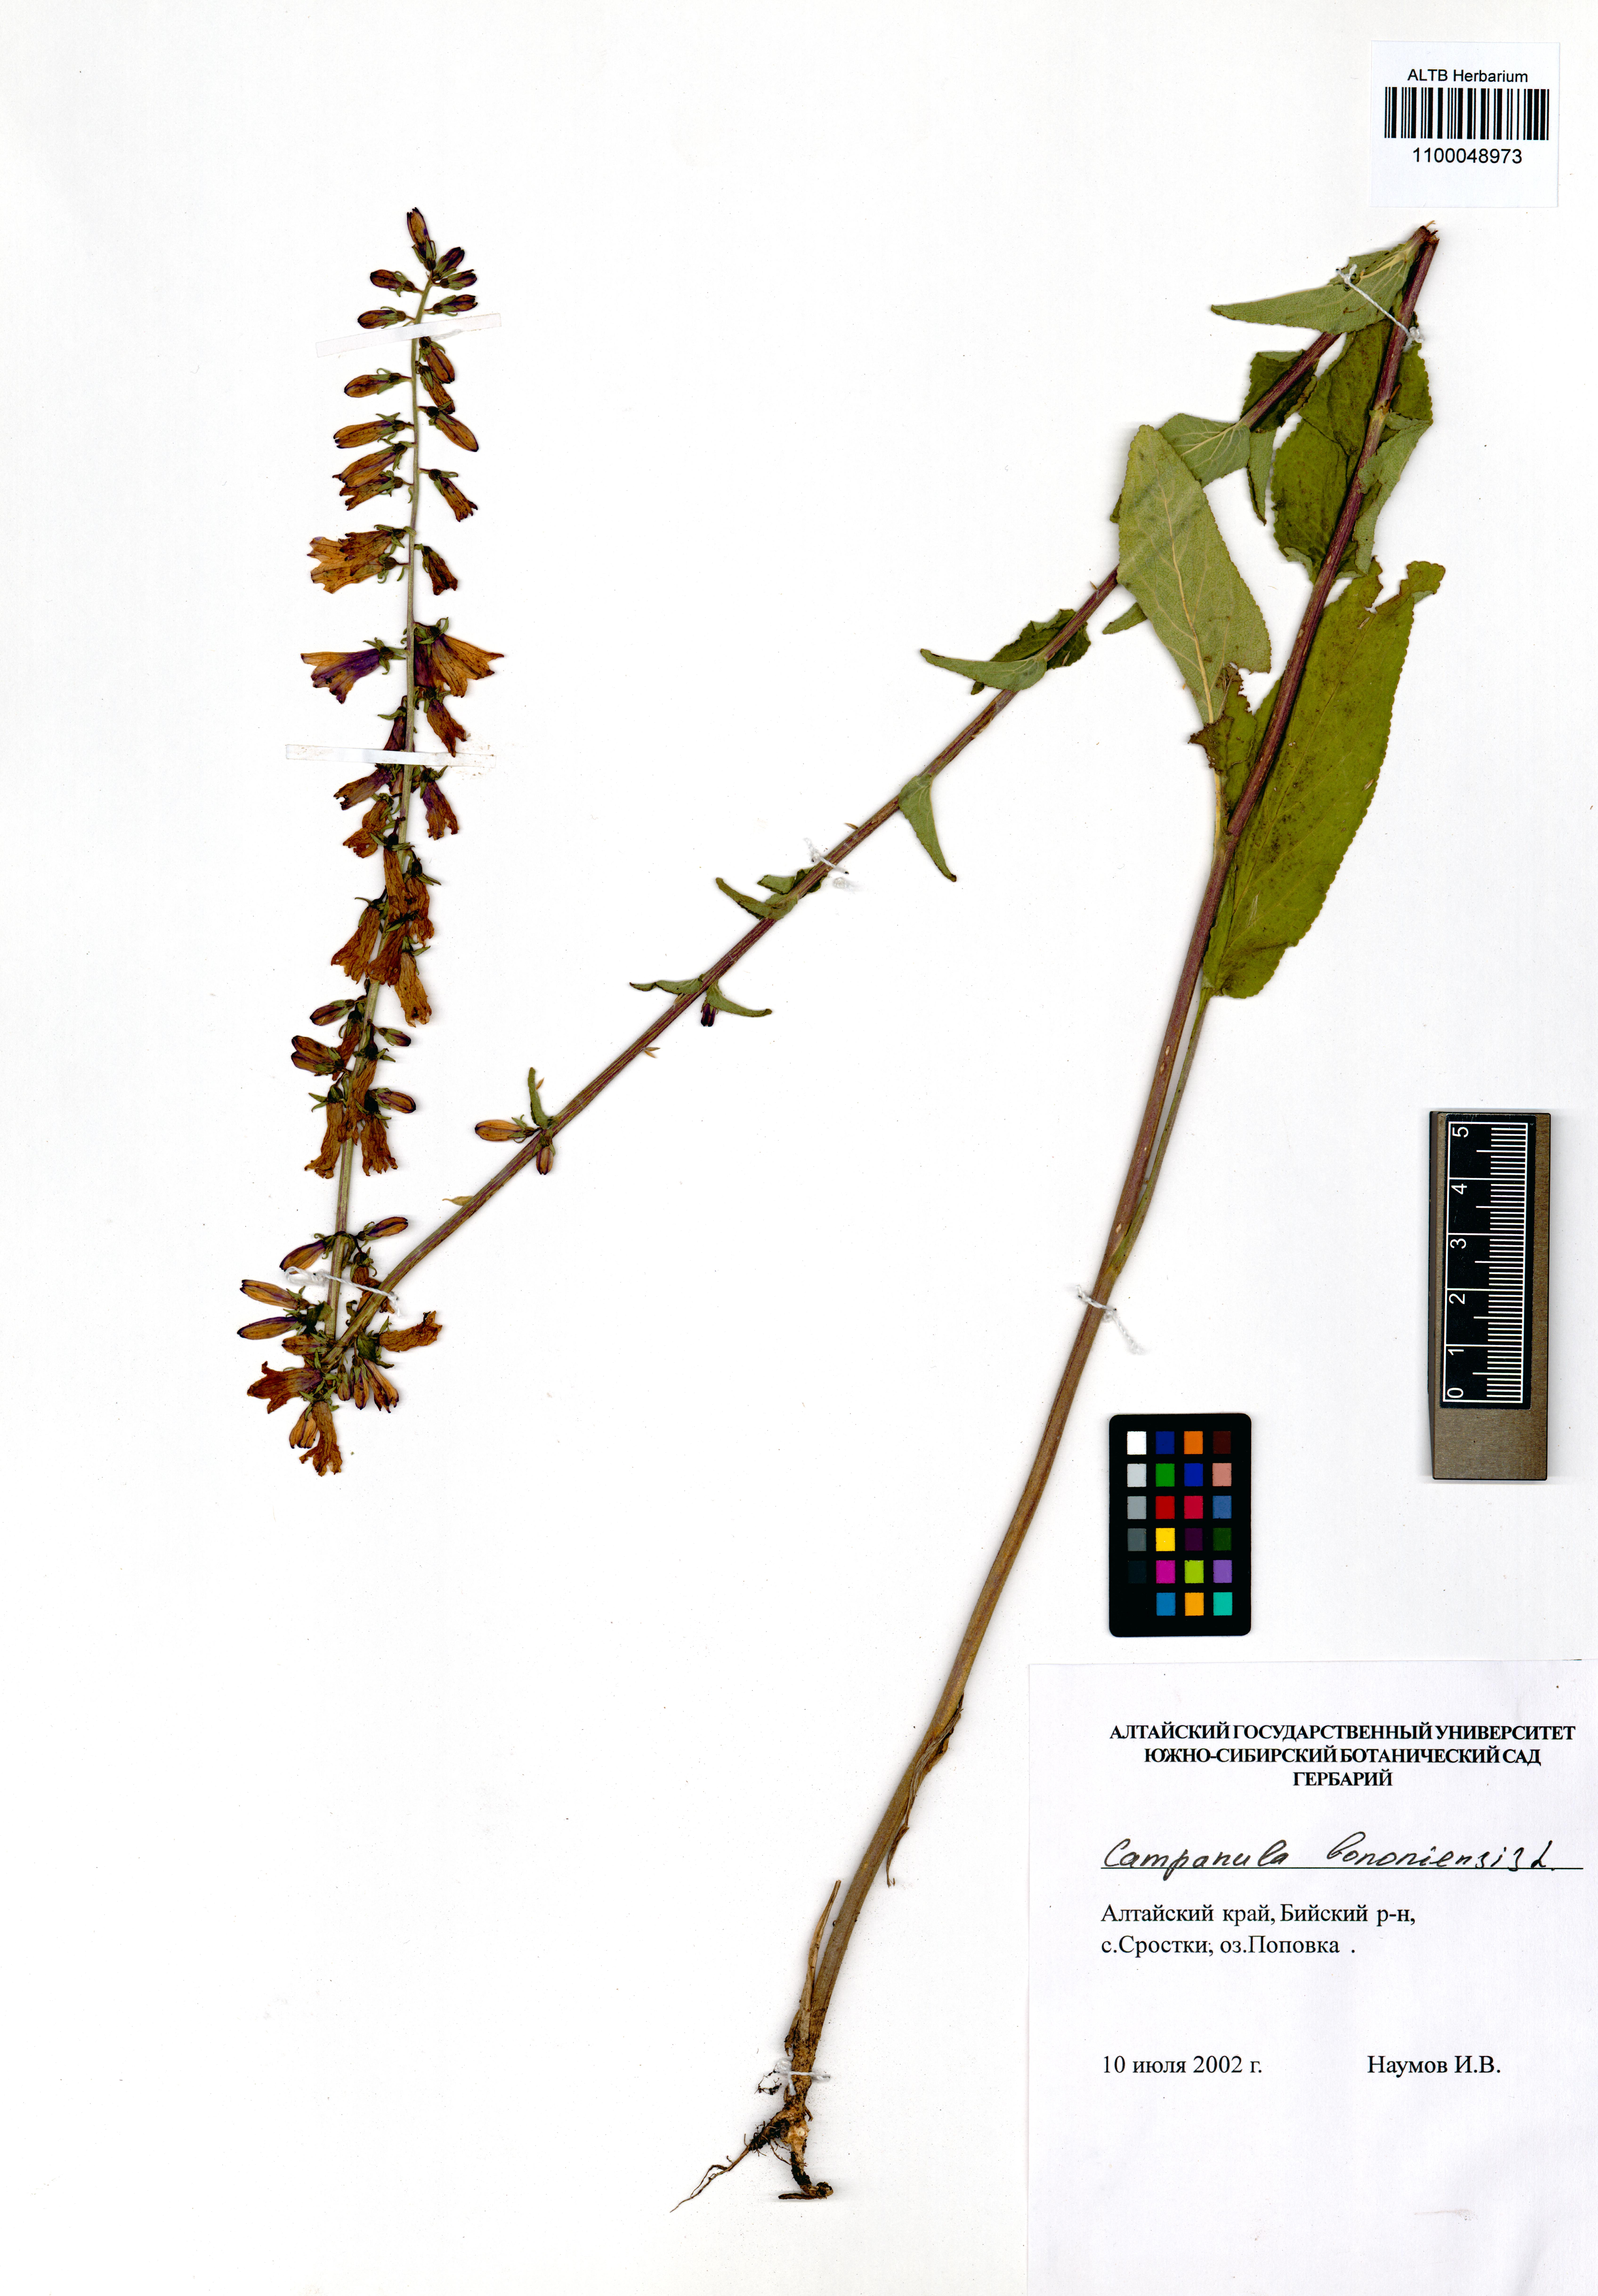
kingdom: Plantae
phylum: Tracheophyta
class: Magnoliopsida
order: Asterales
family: Campanulaceae
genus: Campanula
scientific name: Campanula bononiensis
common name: Pale bellflower
